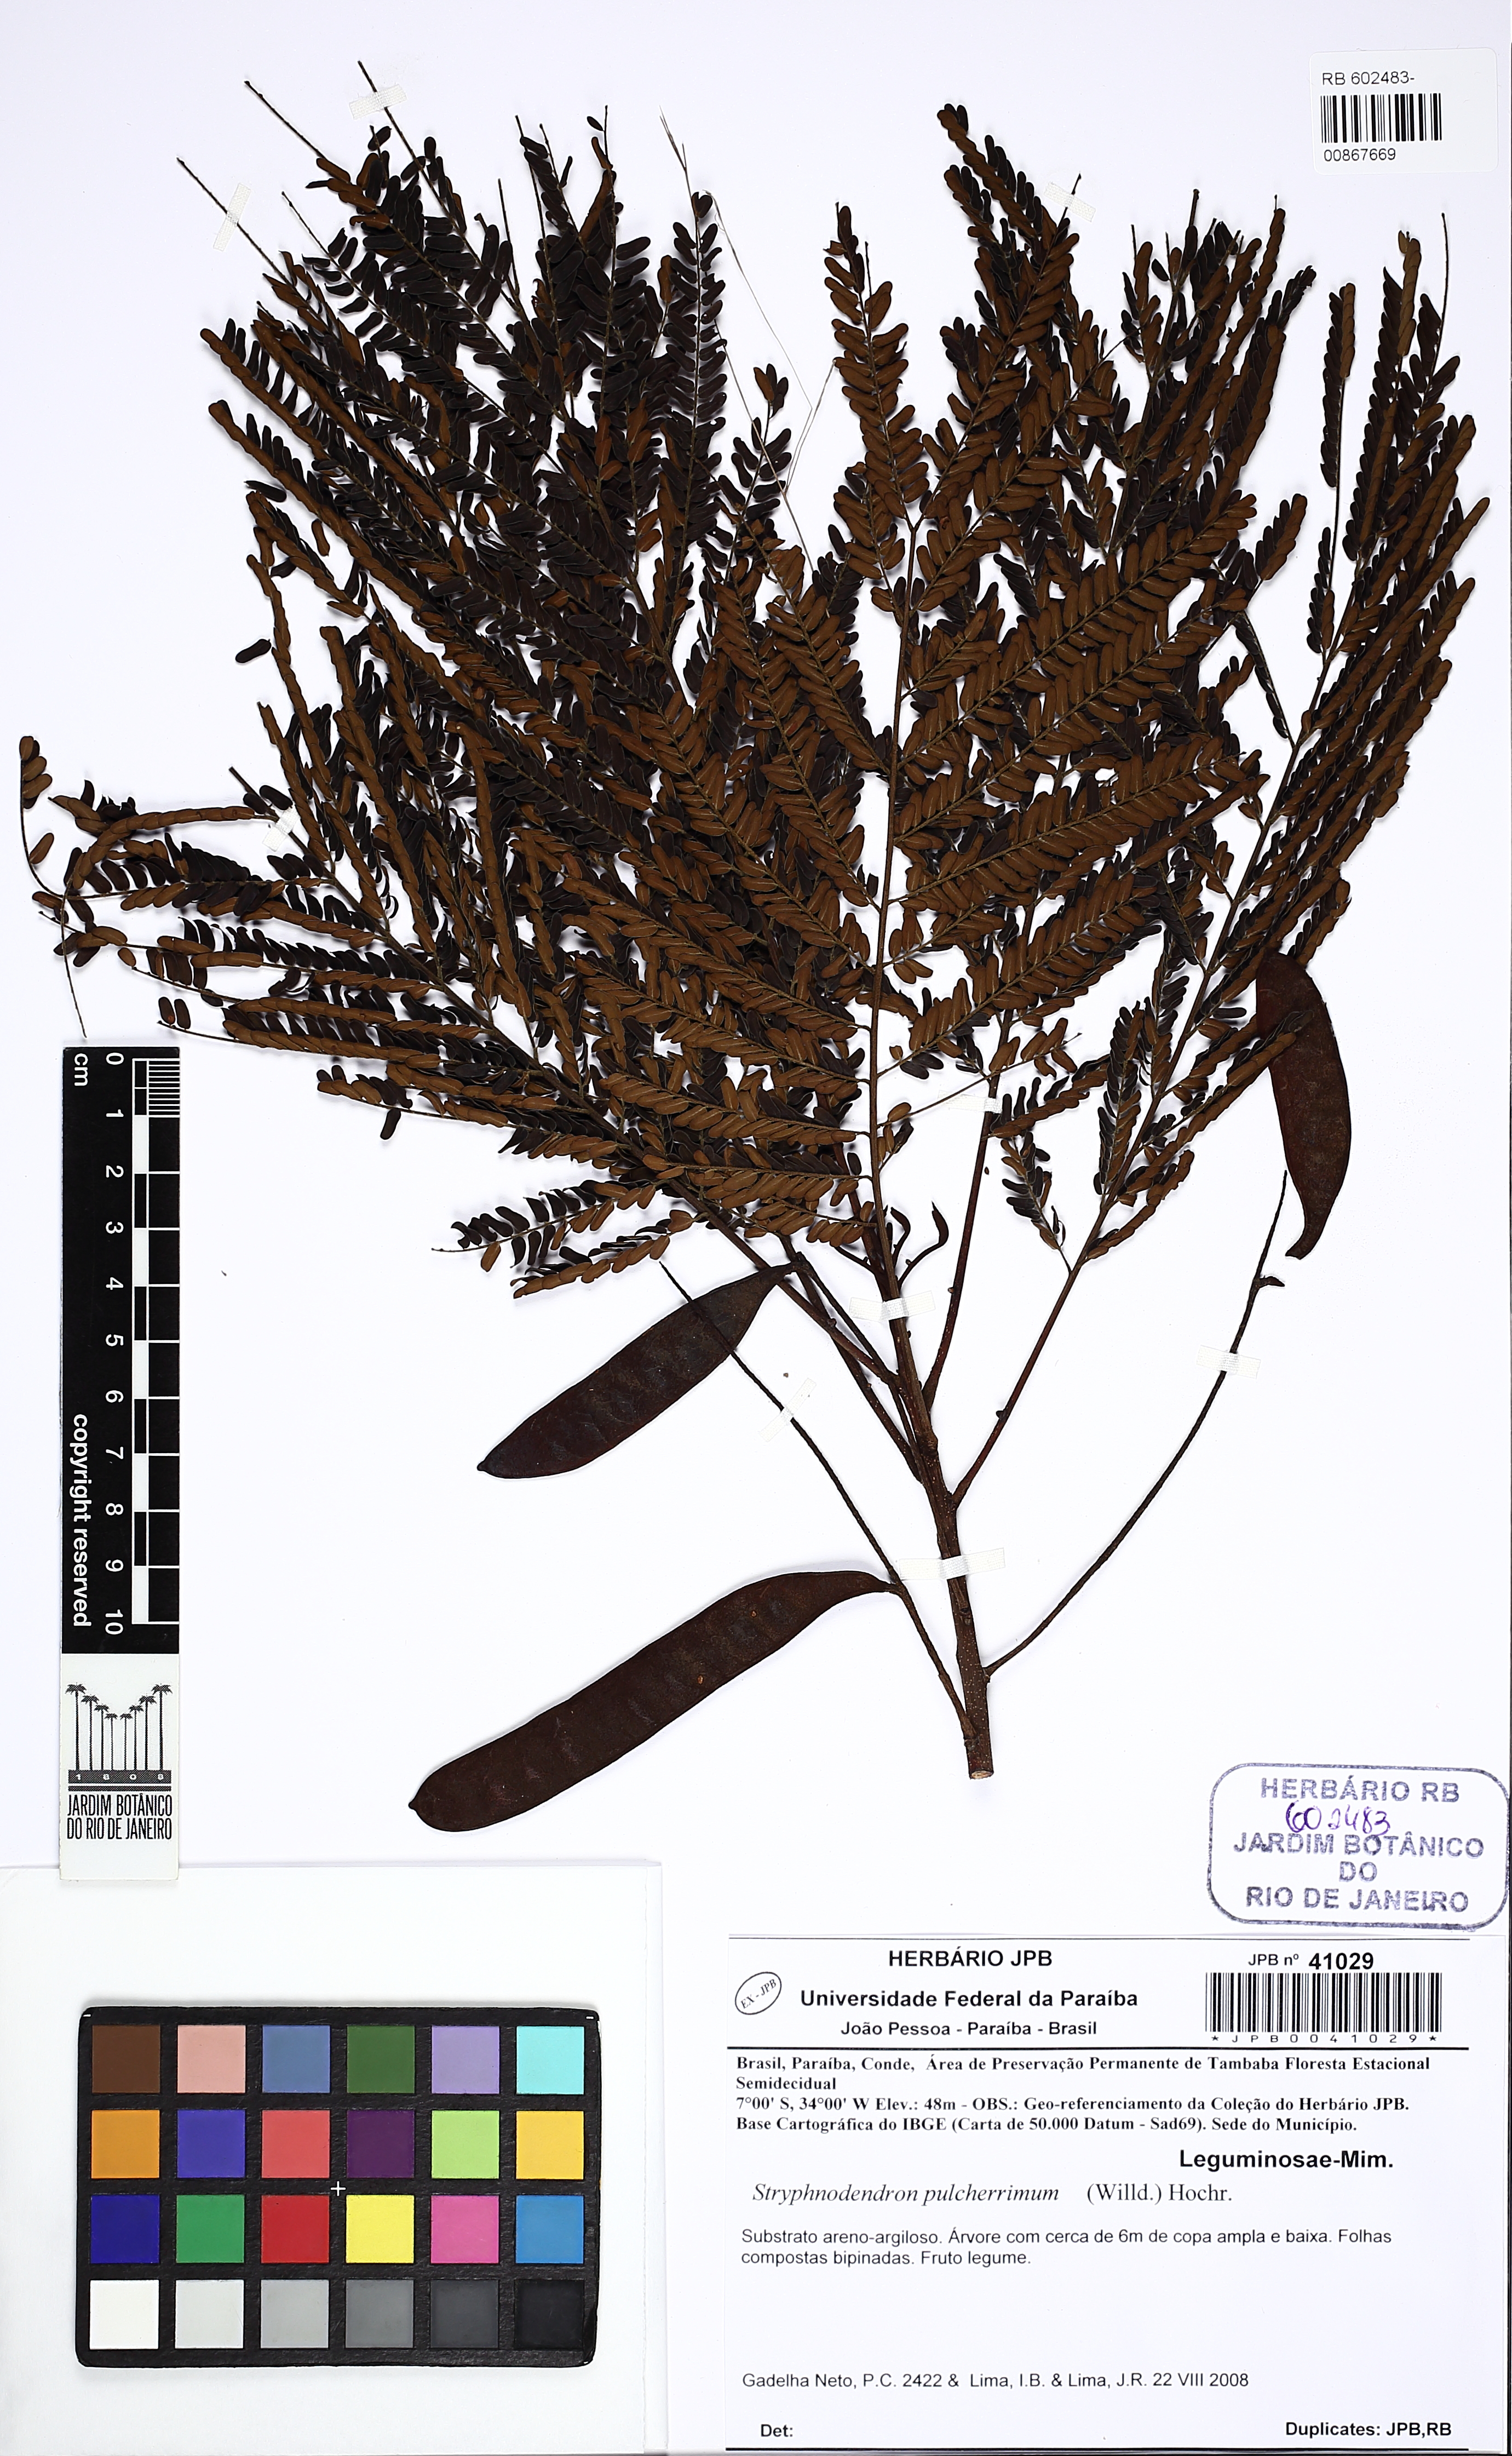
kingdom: Plantae
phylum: Tracheophyta
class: Magnoliopsida
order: Fabales
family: Fabaceae
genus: Stryphnodendron
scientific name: Stryphnodendron pulcherrimum
